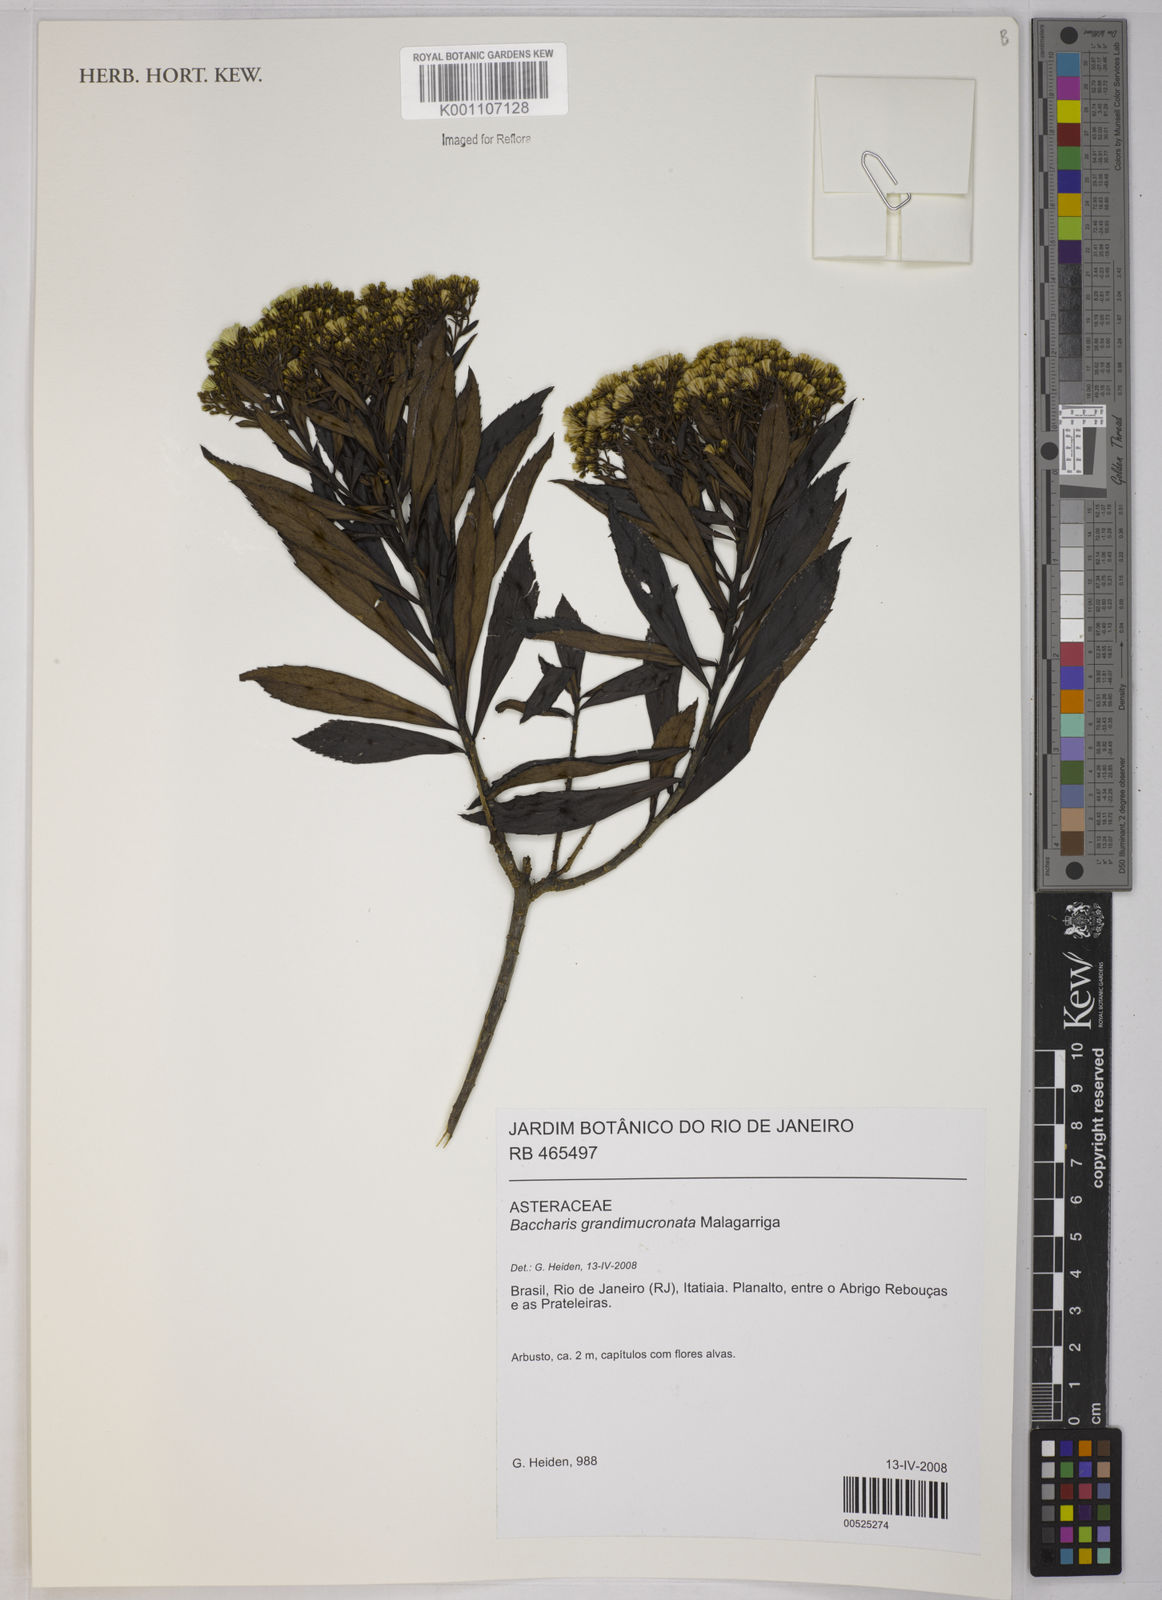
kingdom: Plantae
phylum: Tracheophyta
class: Magnoliopsida
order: Asterales
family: Asteraceae
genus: Baccharis
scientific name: Baccharis grandimucronata
